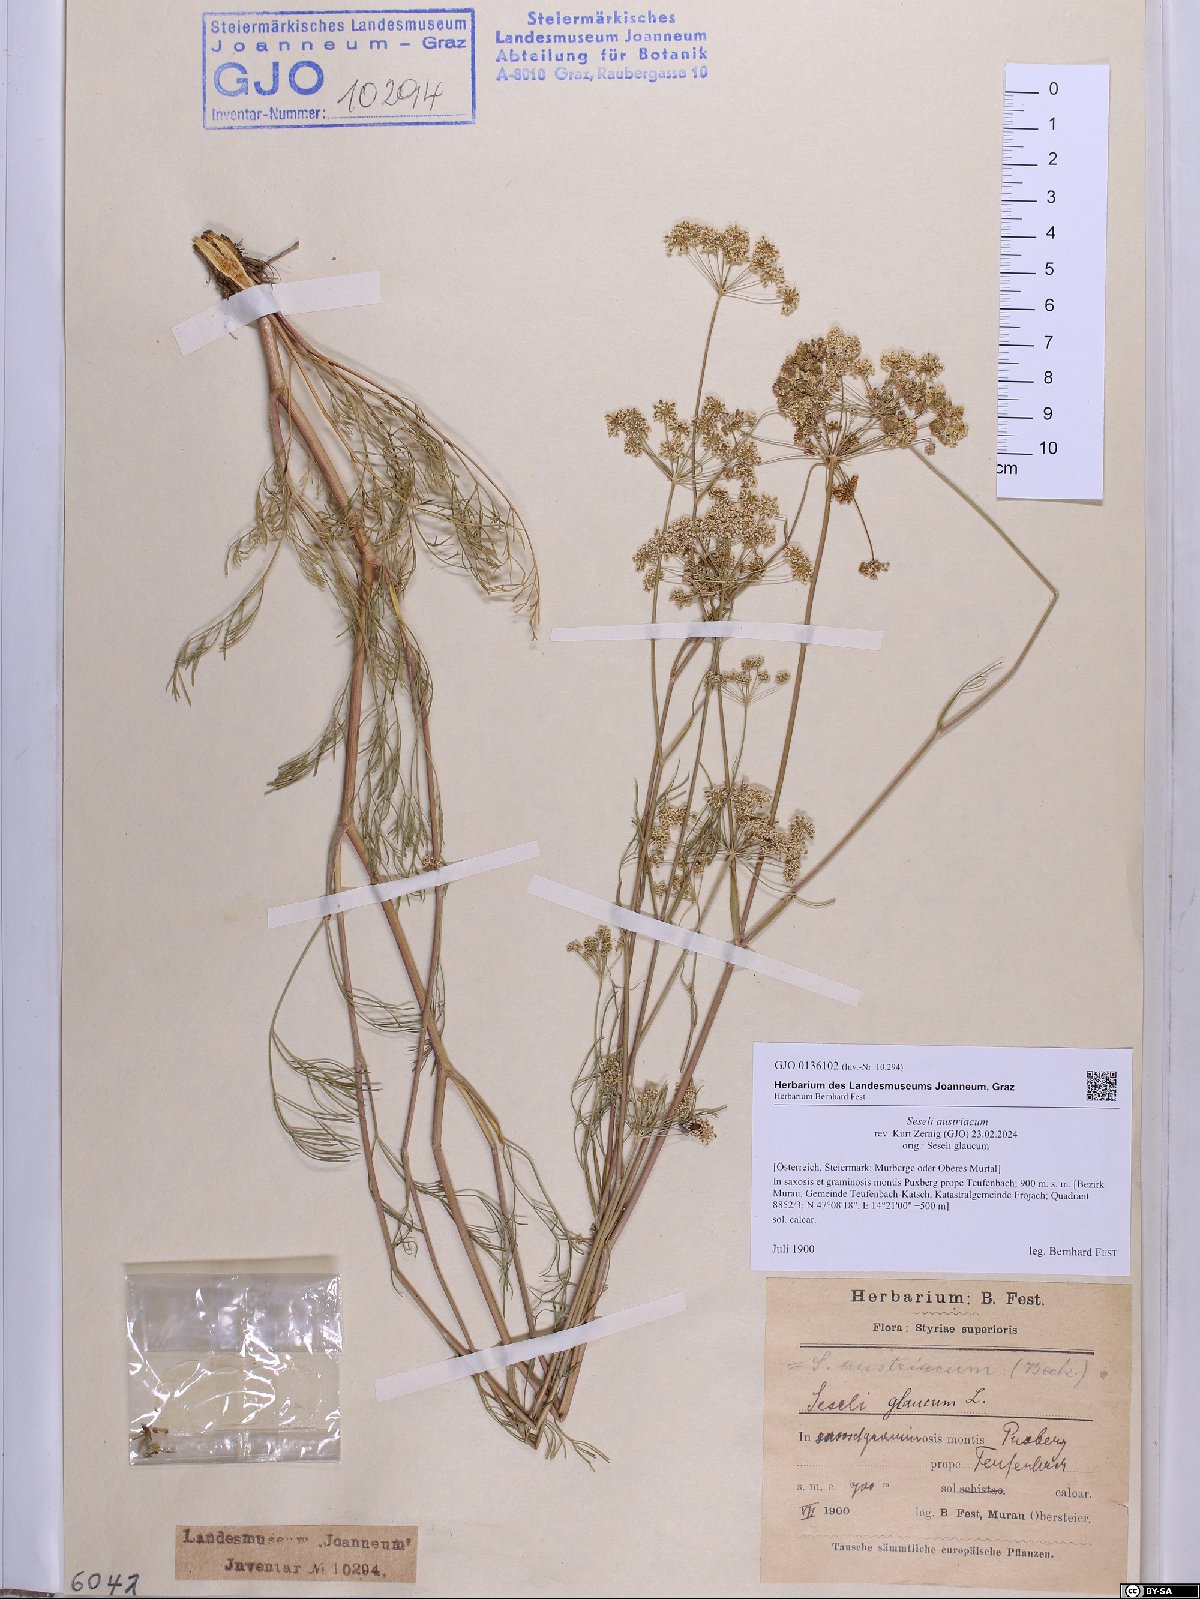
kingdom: Plantae
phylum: Tracheophyta
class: Magnoliopsida
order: Apiales
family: Apiaceae
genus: Seseli
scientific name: Seseli austriacum
